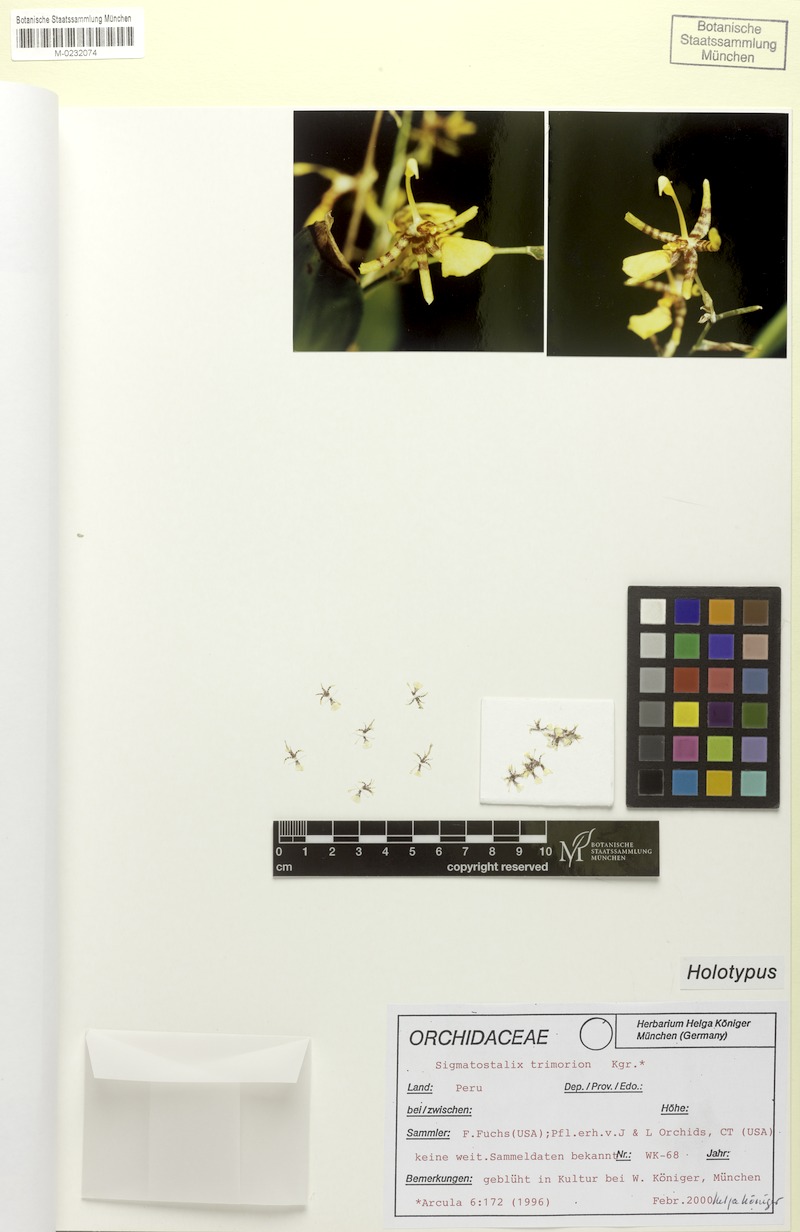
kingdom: Plantae
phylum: Tracheophyta
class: Liliopsida
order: Asparagales
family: Orchidaceae
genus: Oncidium
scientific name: Oncidium trimorion
